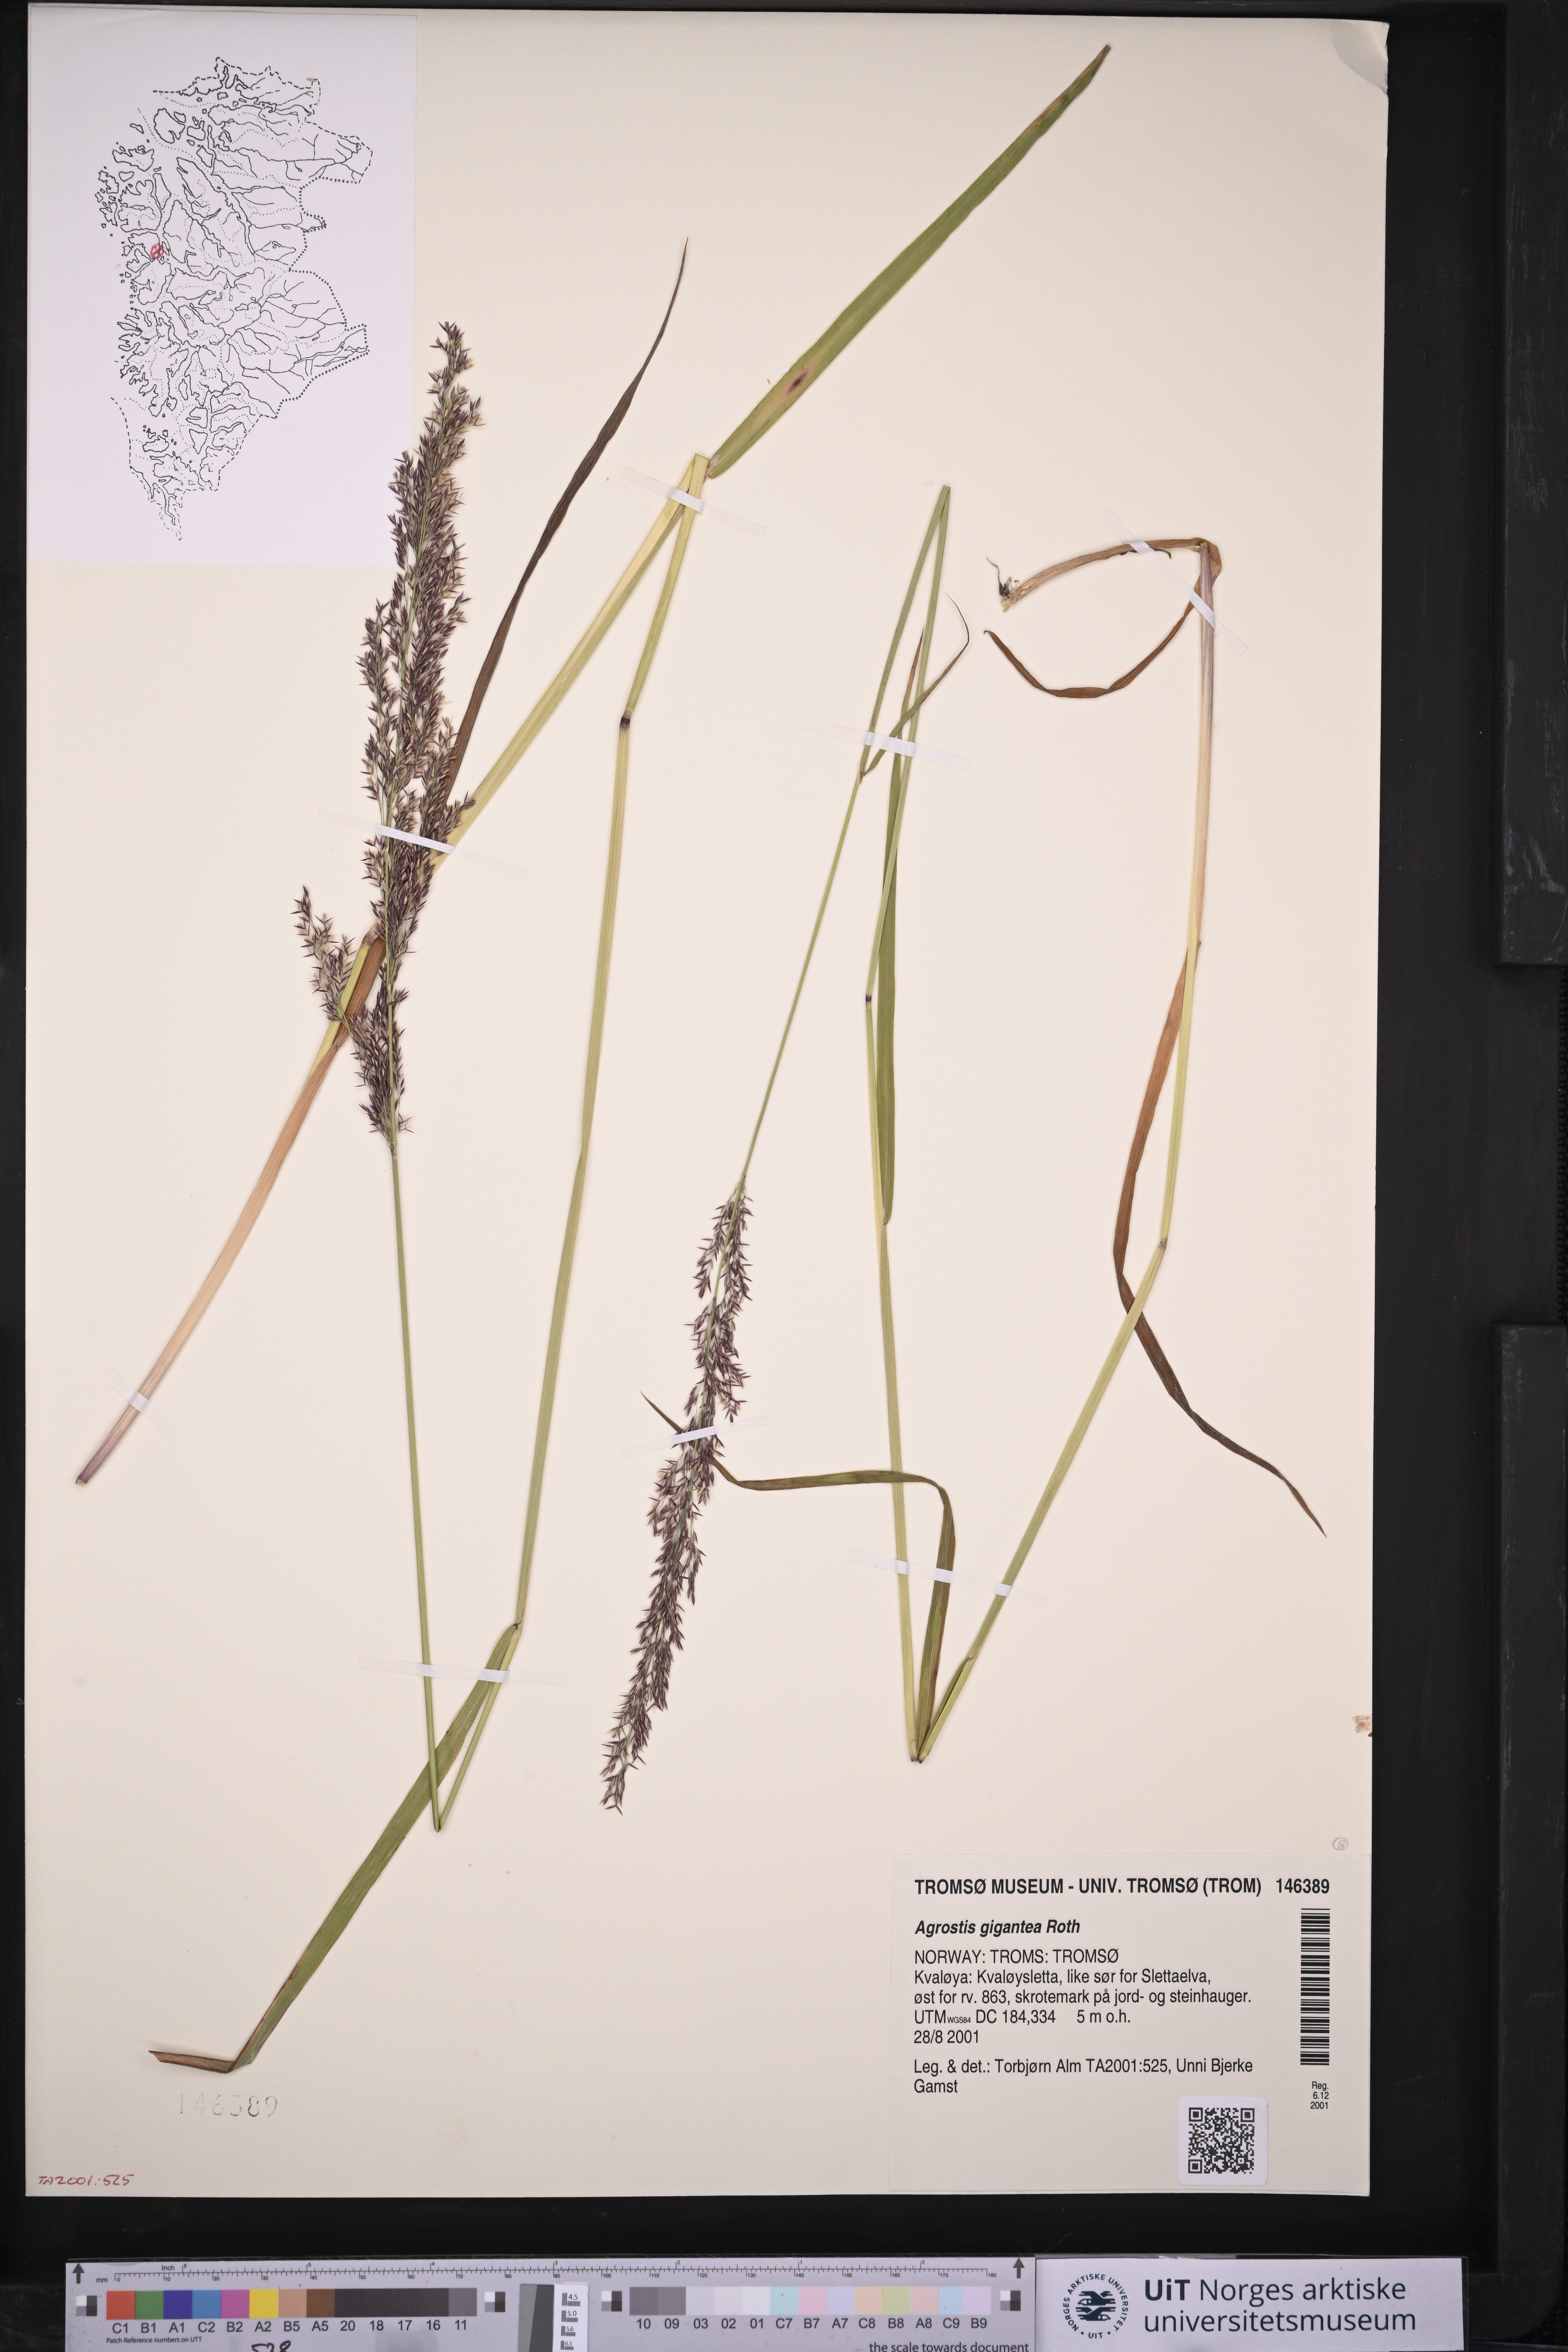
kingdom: Plantae
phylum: Tracheophyta
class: Liliopsida
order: Poales
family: Poaceae
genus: Agrostis
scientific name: Agrostis gigantea
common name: Black bent
